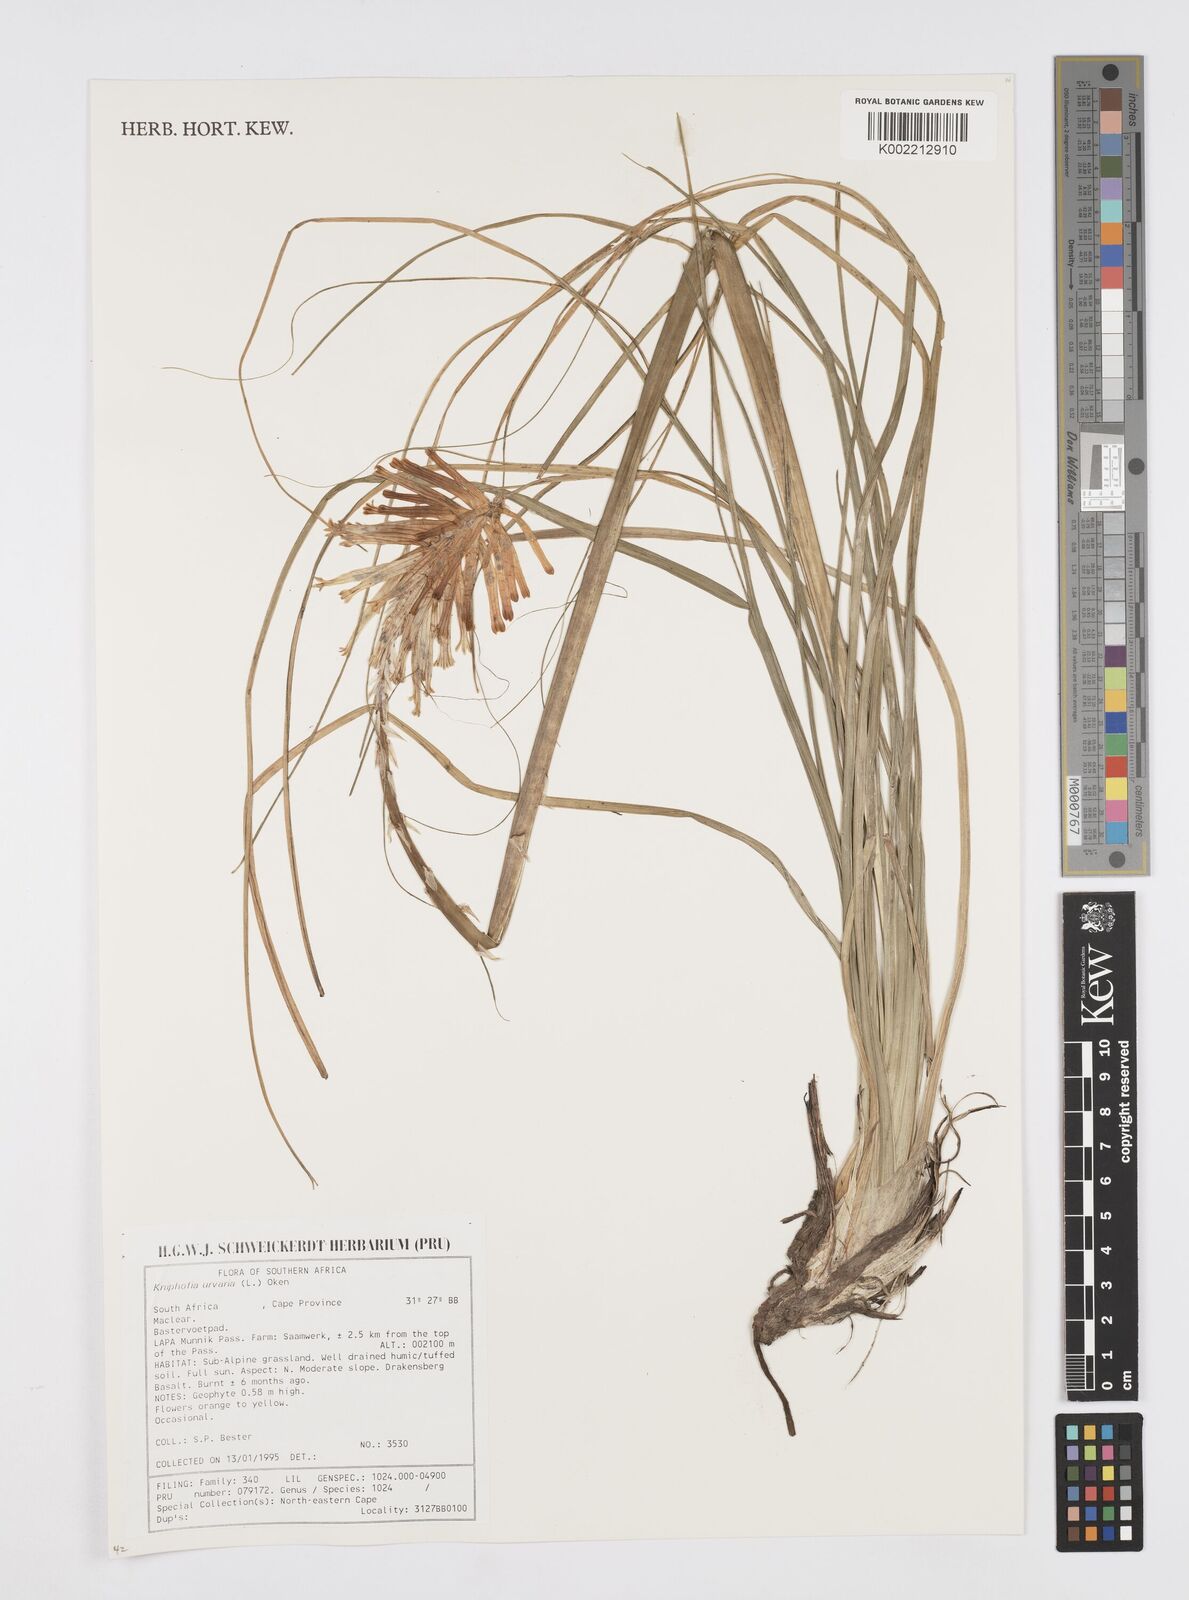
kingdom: Plantae
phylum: Tracheophyta
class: Liliopsida
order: Asparagales
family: Asphodelaceae
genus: Kniphofia
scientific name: Kniphofia uvaria
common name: Red-hot-poker
